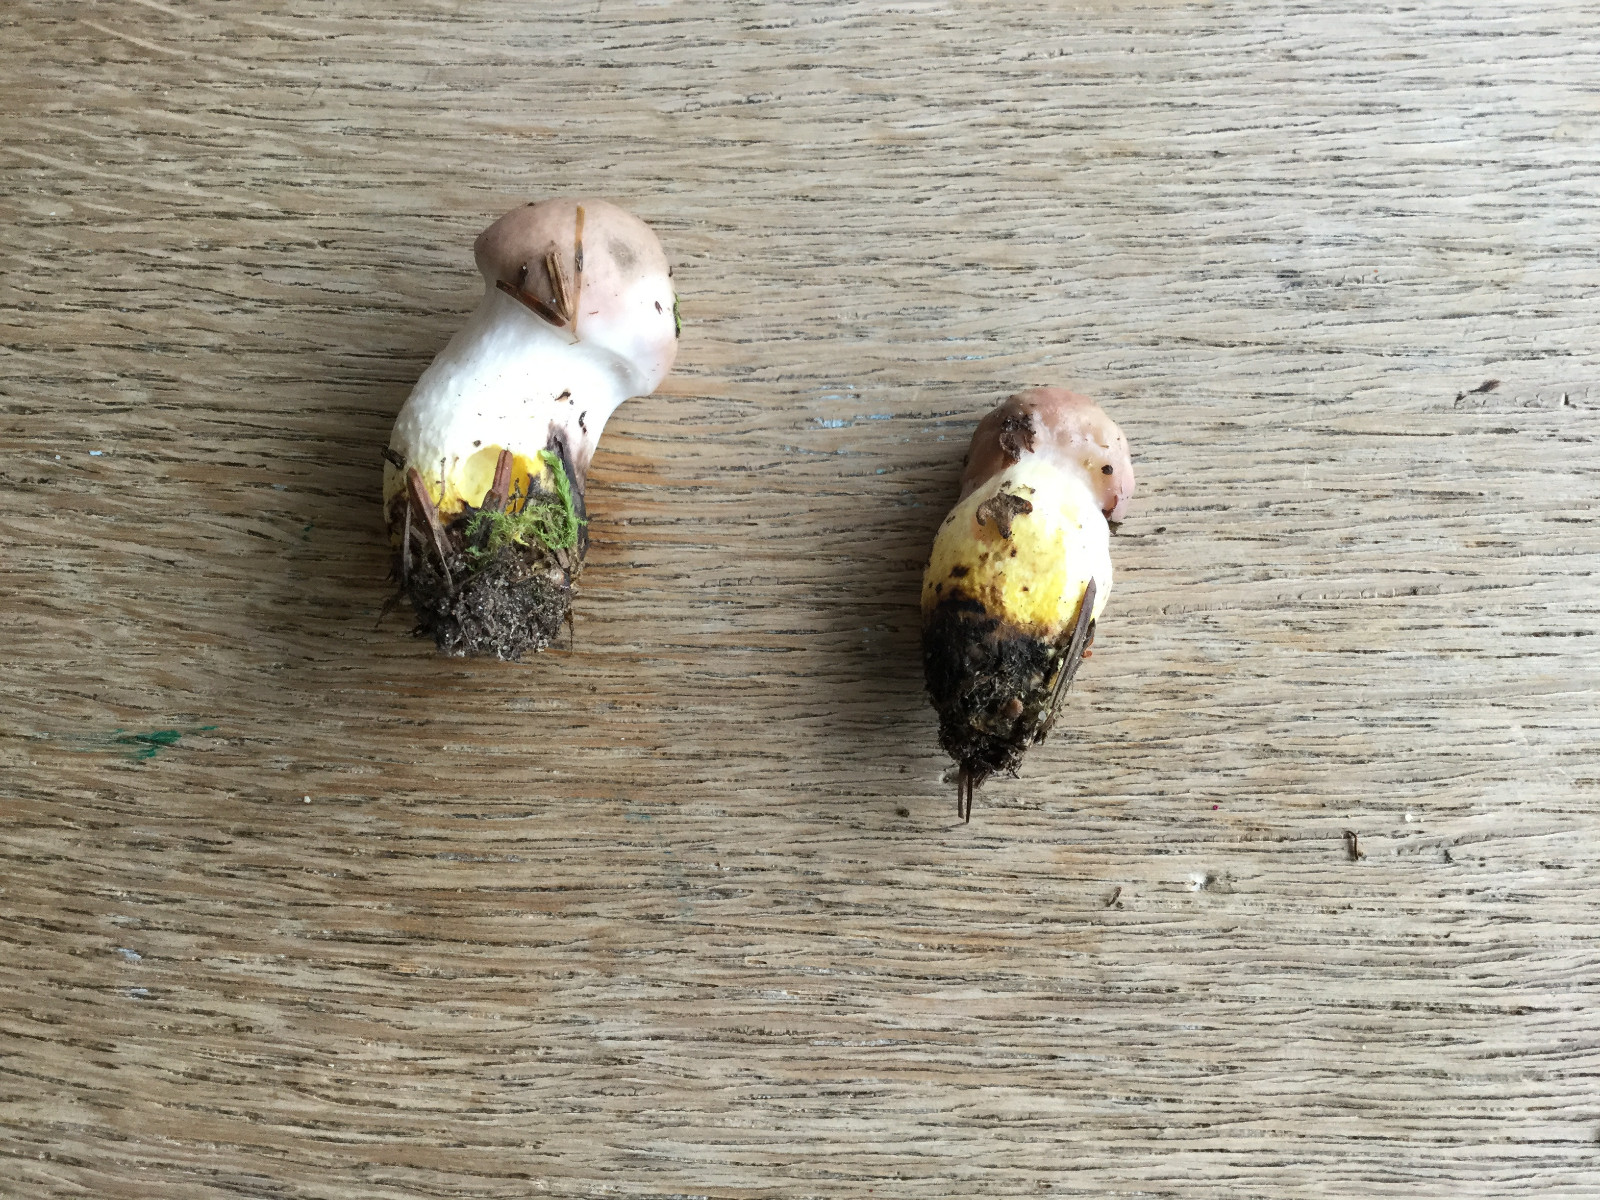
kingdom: Fungi
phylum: Basidiomycota
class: Agaricomycetes
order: Boletales
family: Gomphidiaceae
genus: Gomphidius
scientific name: Gomphidius glutinosus
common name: grå slimslør
